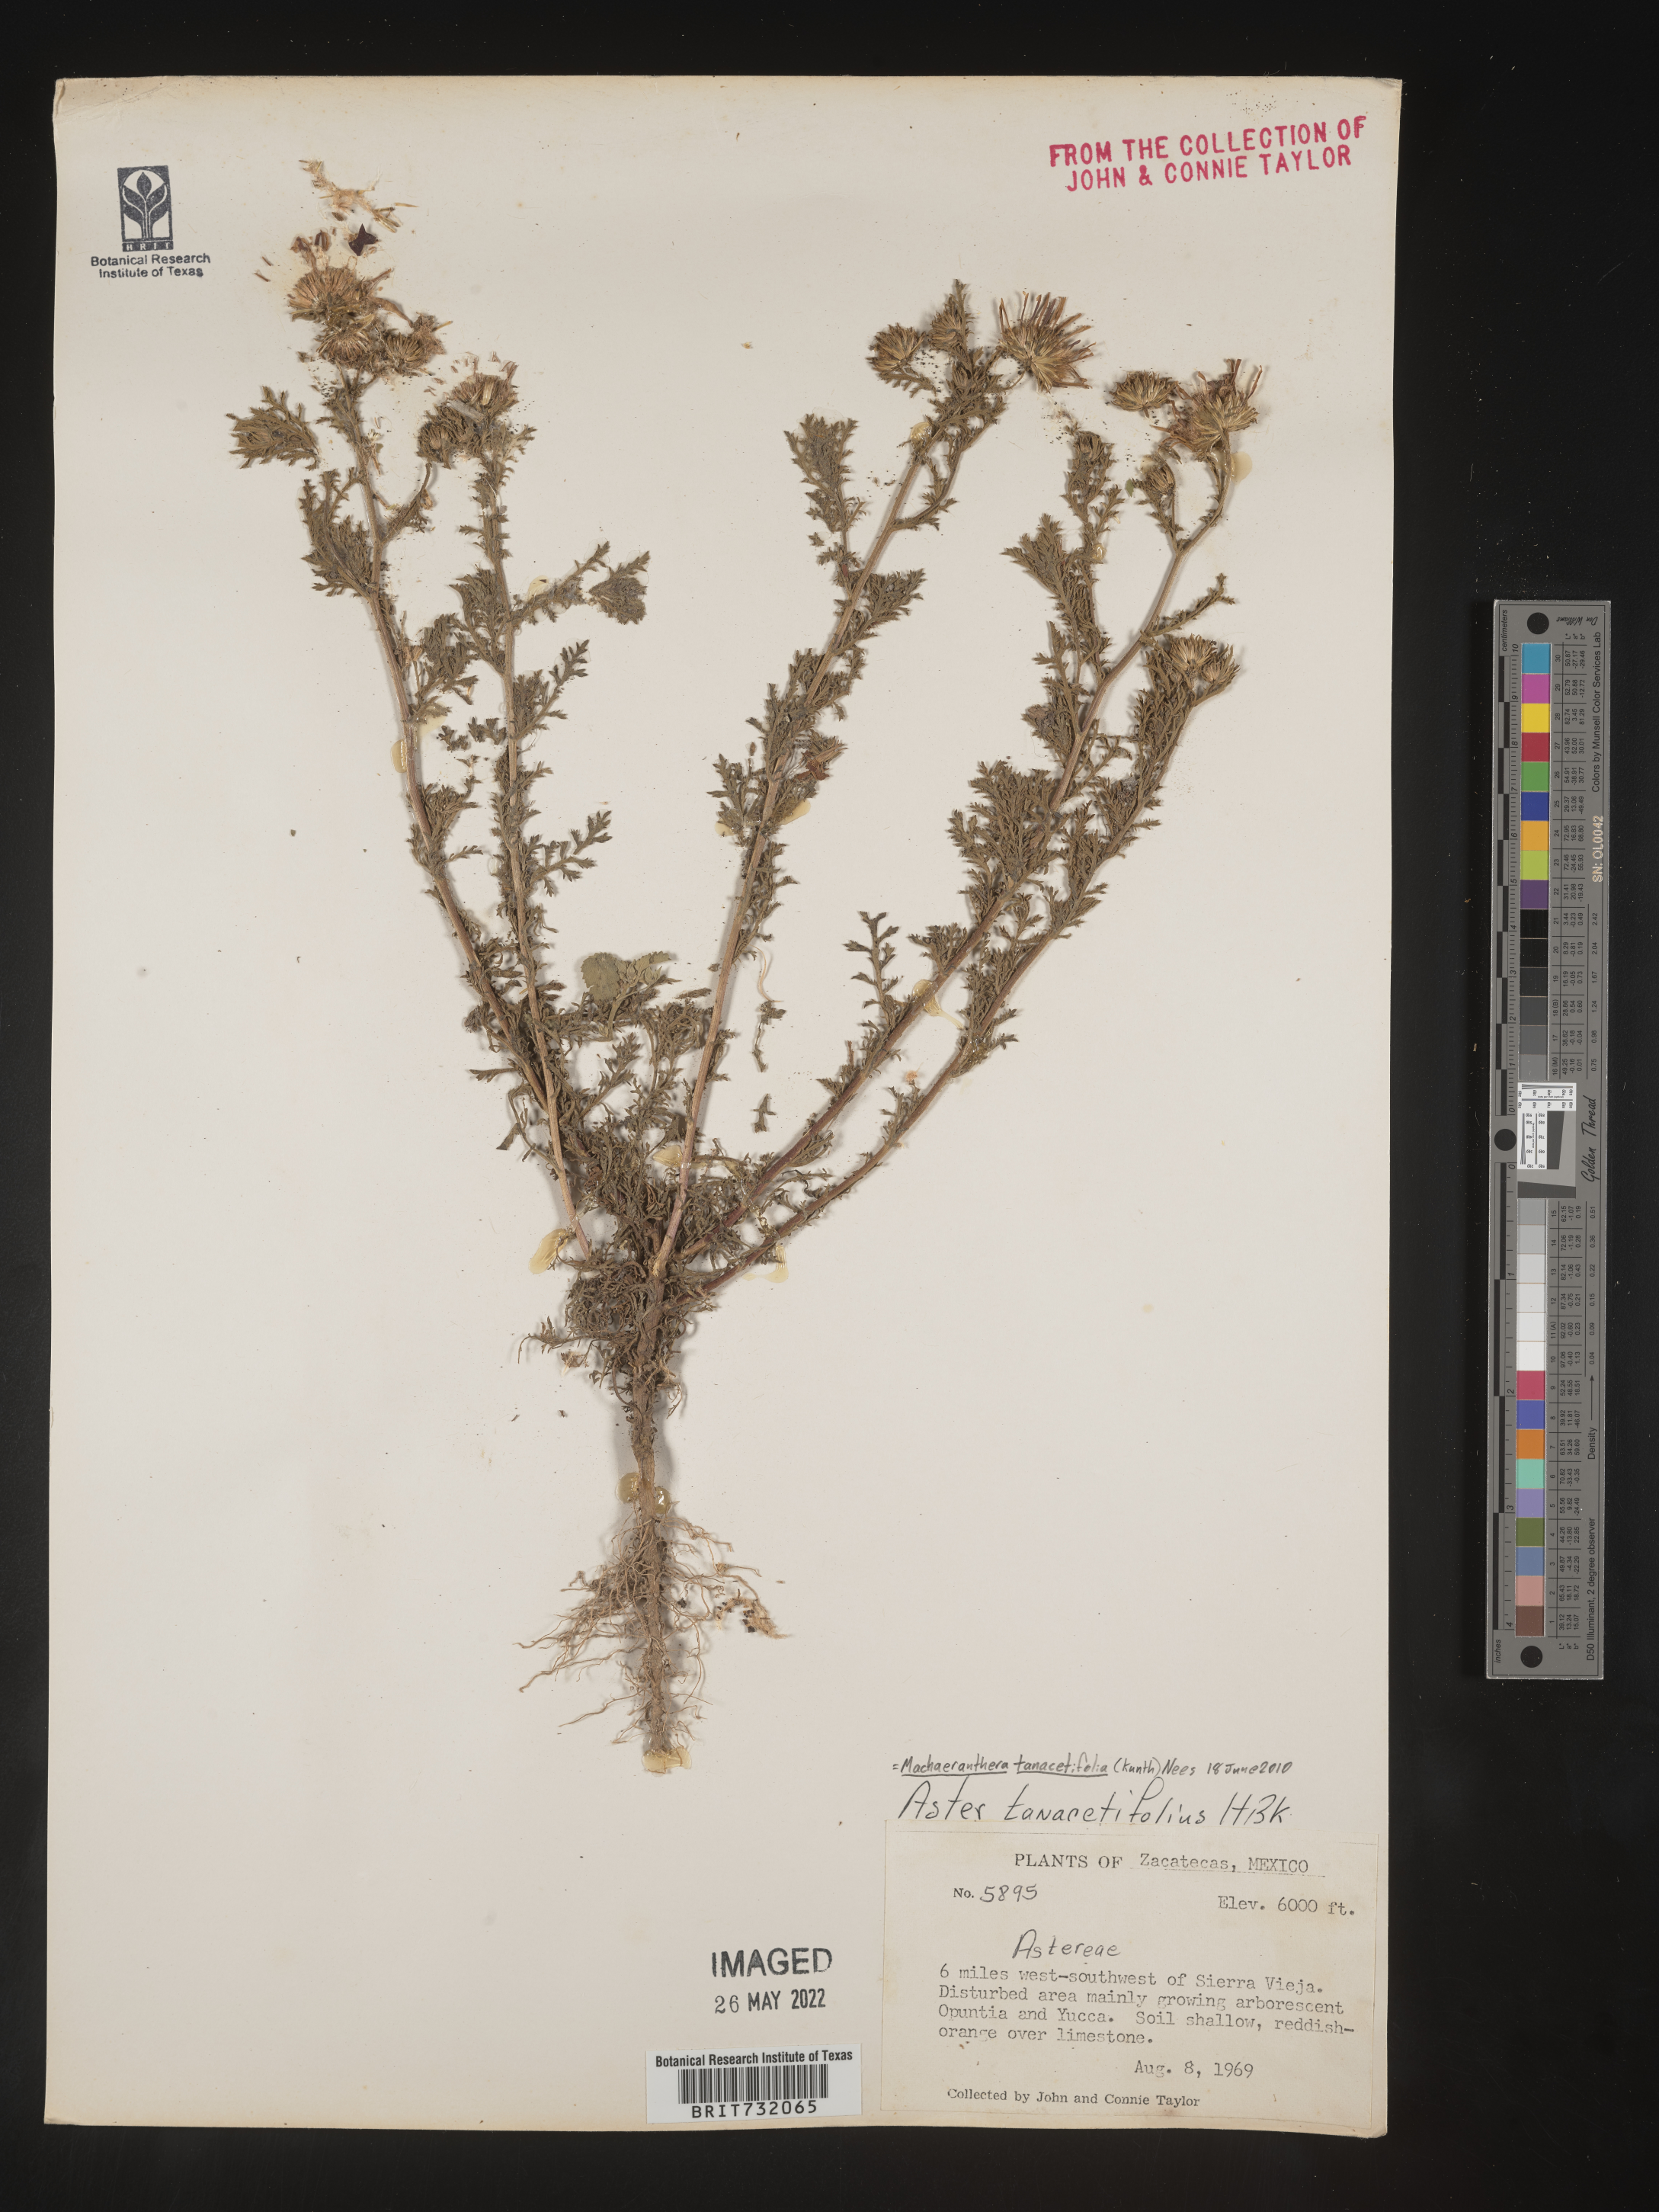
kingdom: Plantae
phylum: Tracheophyta
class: Magnoliopsida
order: Asterales
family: Asteraceae
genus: Machaeranthera
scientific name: Machaeranthera tanacetifolia
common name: Tansy-aster
